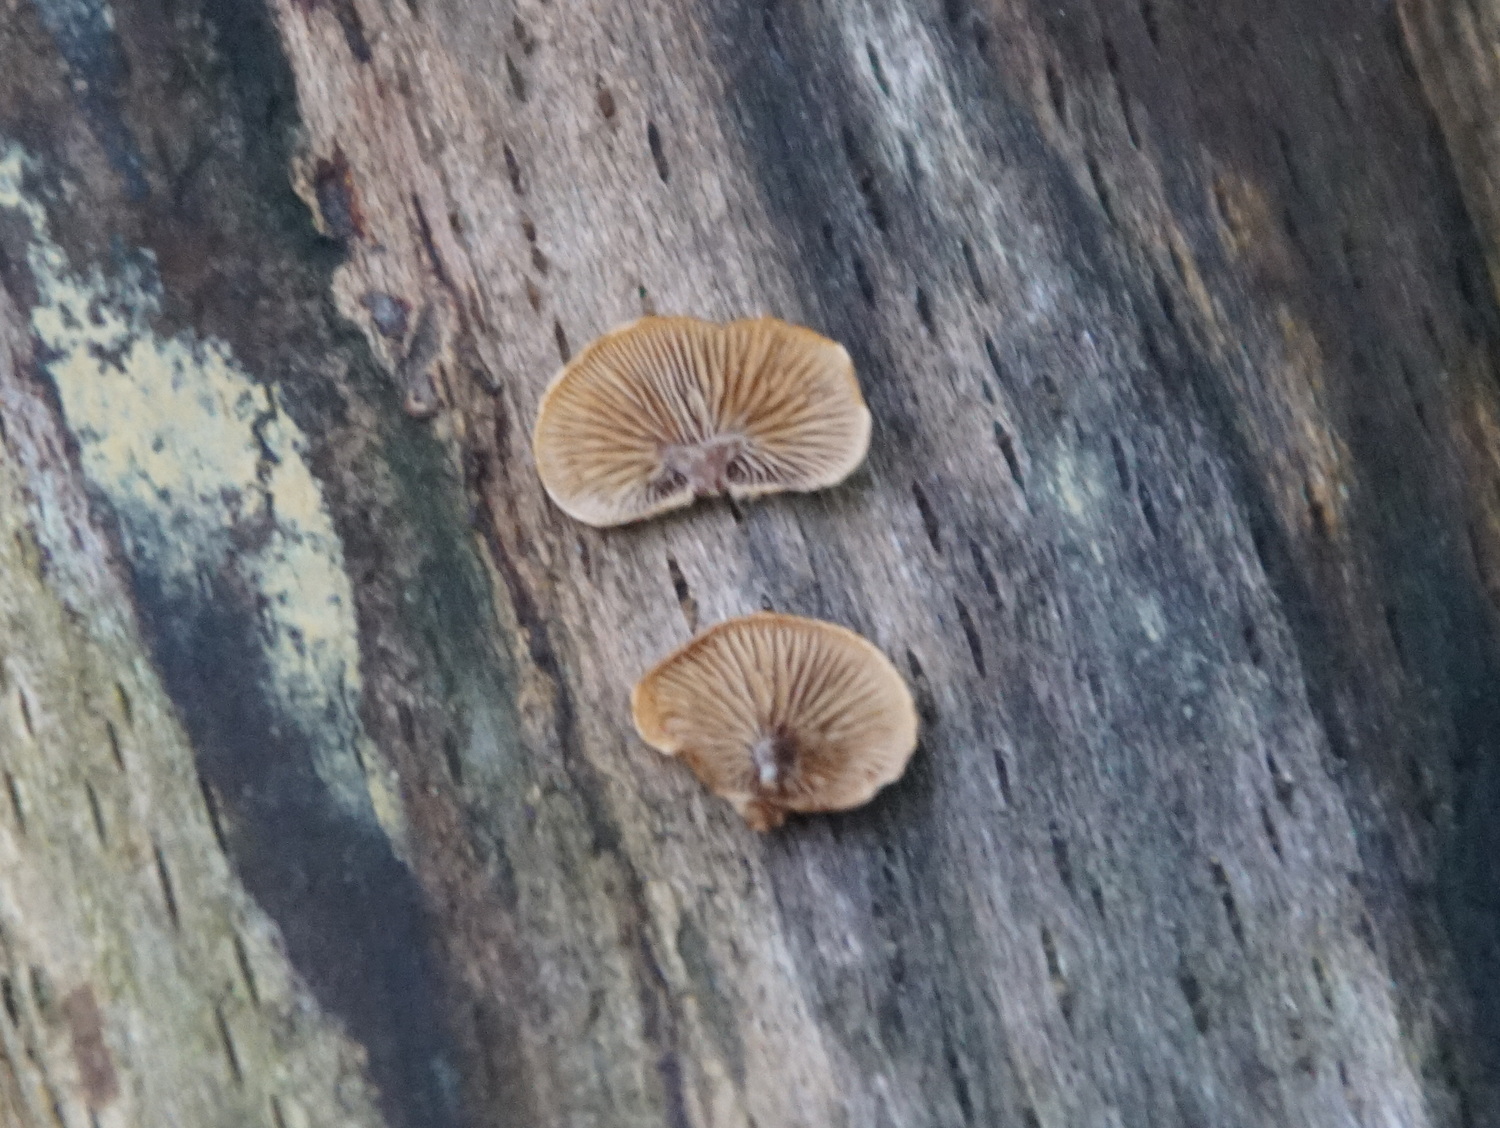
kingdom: Fungi
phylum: Basidiomycota
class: Agaricomycetes
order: Agaricales
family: Strophariaceae
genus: Deconica
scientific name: Deconica horizontalis
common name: ved-stråhat
